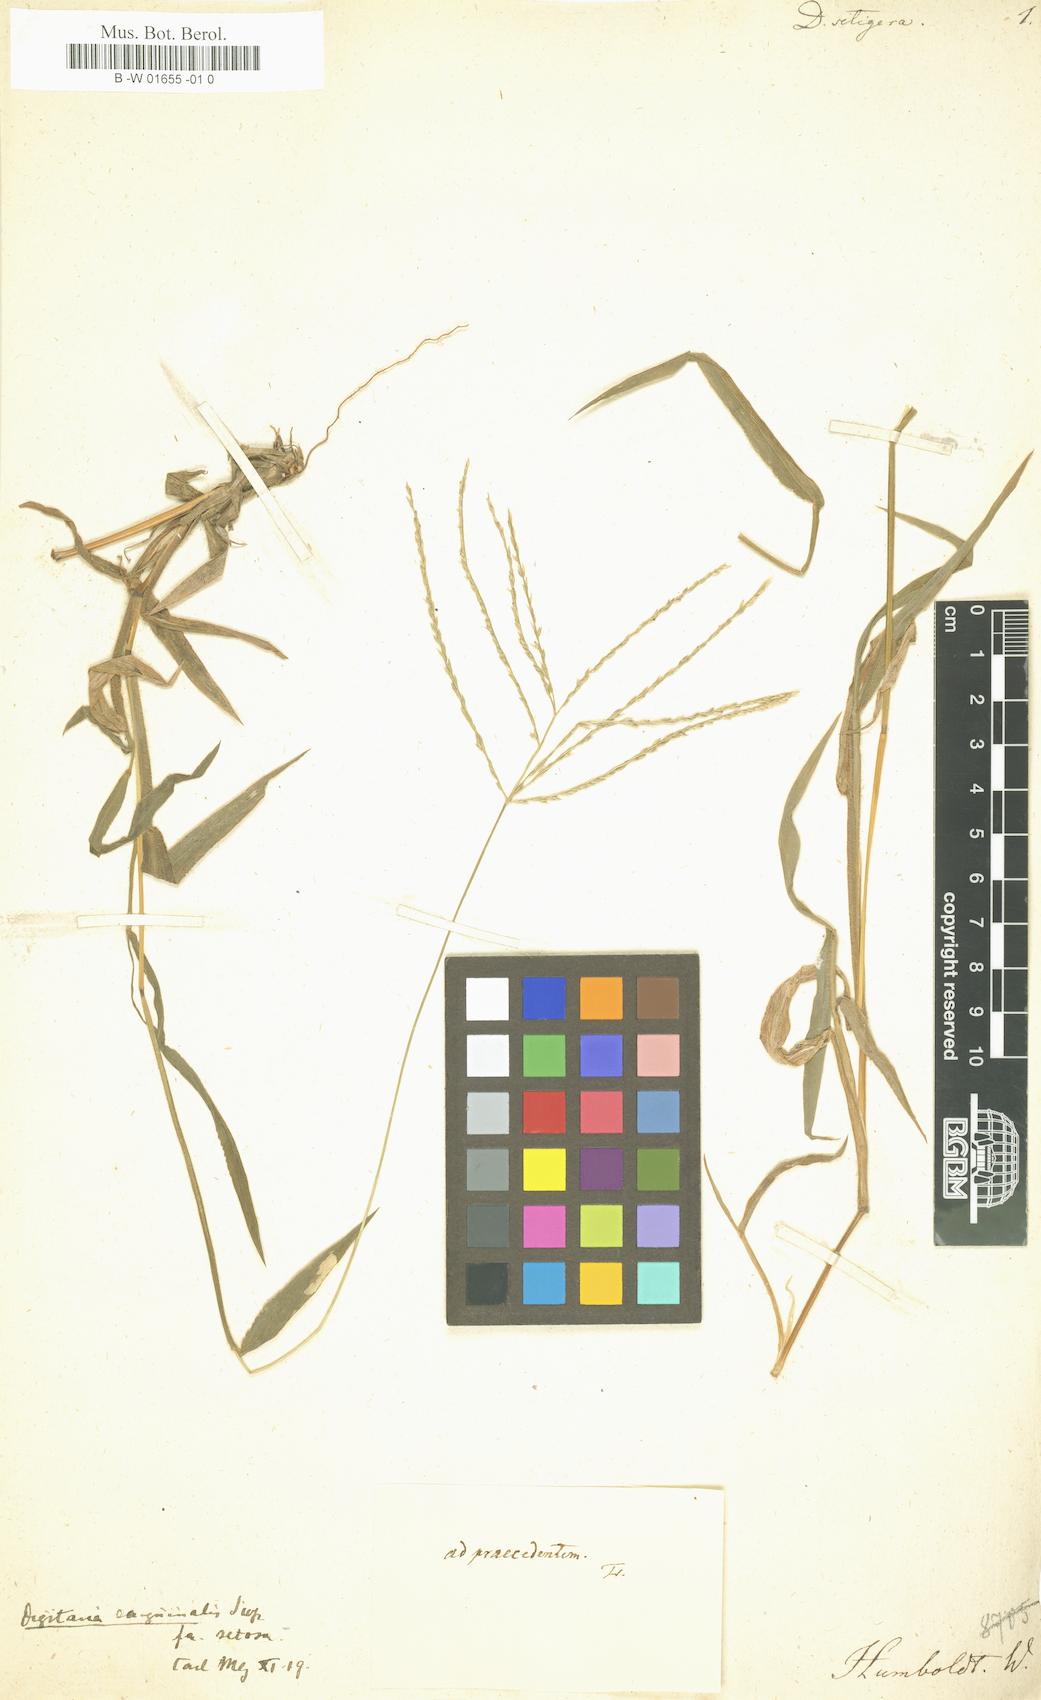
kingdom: Plantae
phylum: Tracheophyta
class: Liliopsida
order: Poales
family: Poaceae
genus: Digitaria
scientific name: Digitaria setigera
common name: East indian crabgrass
